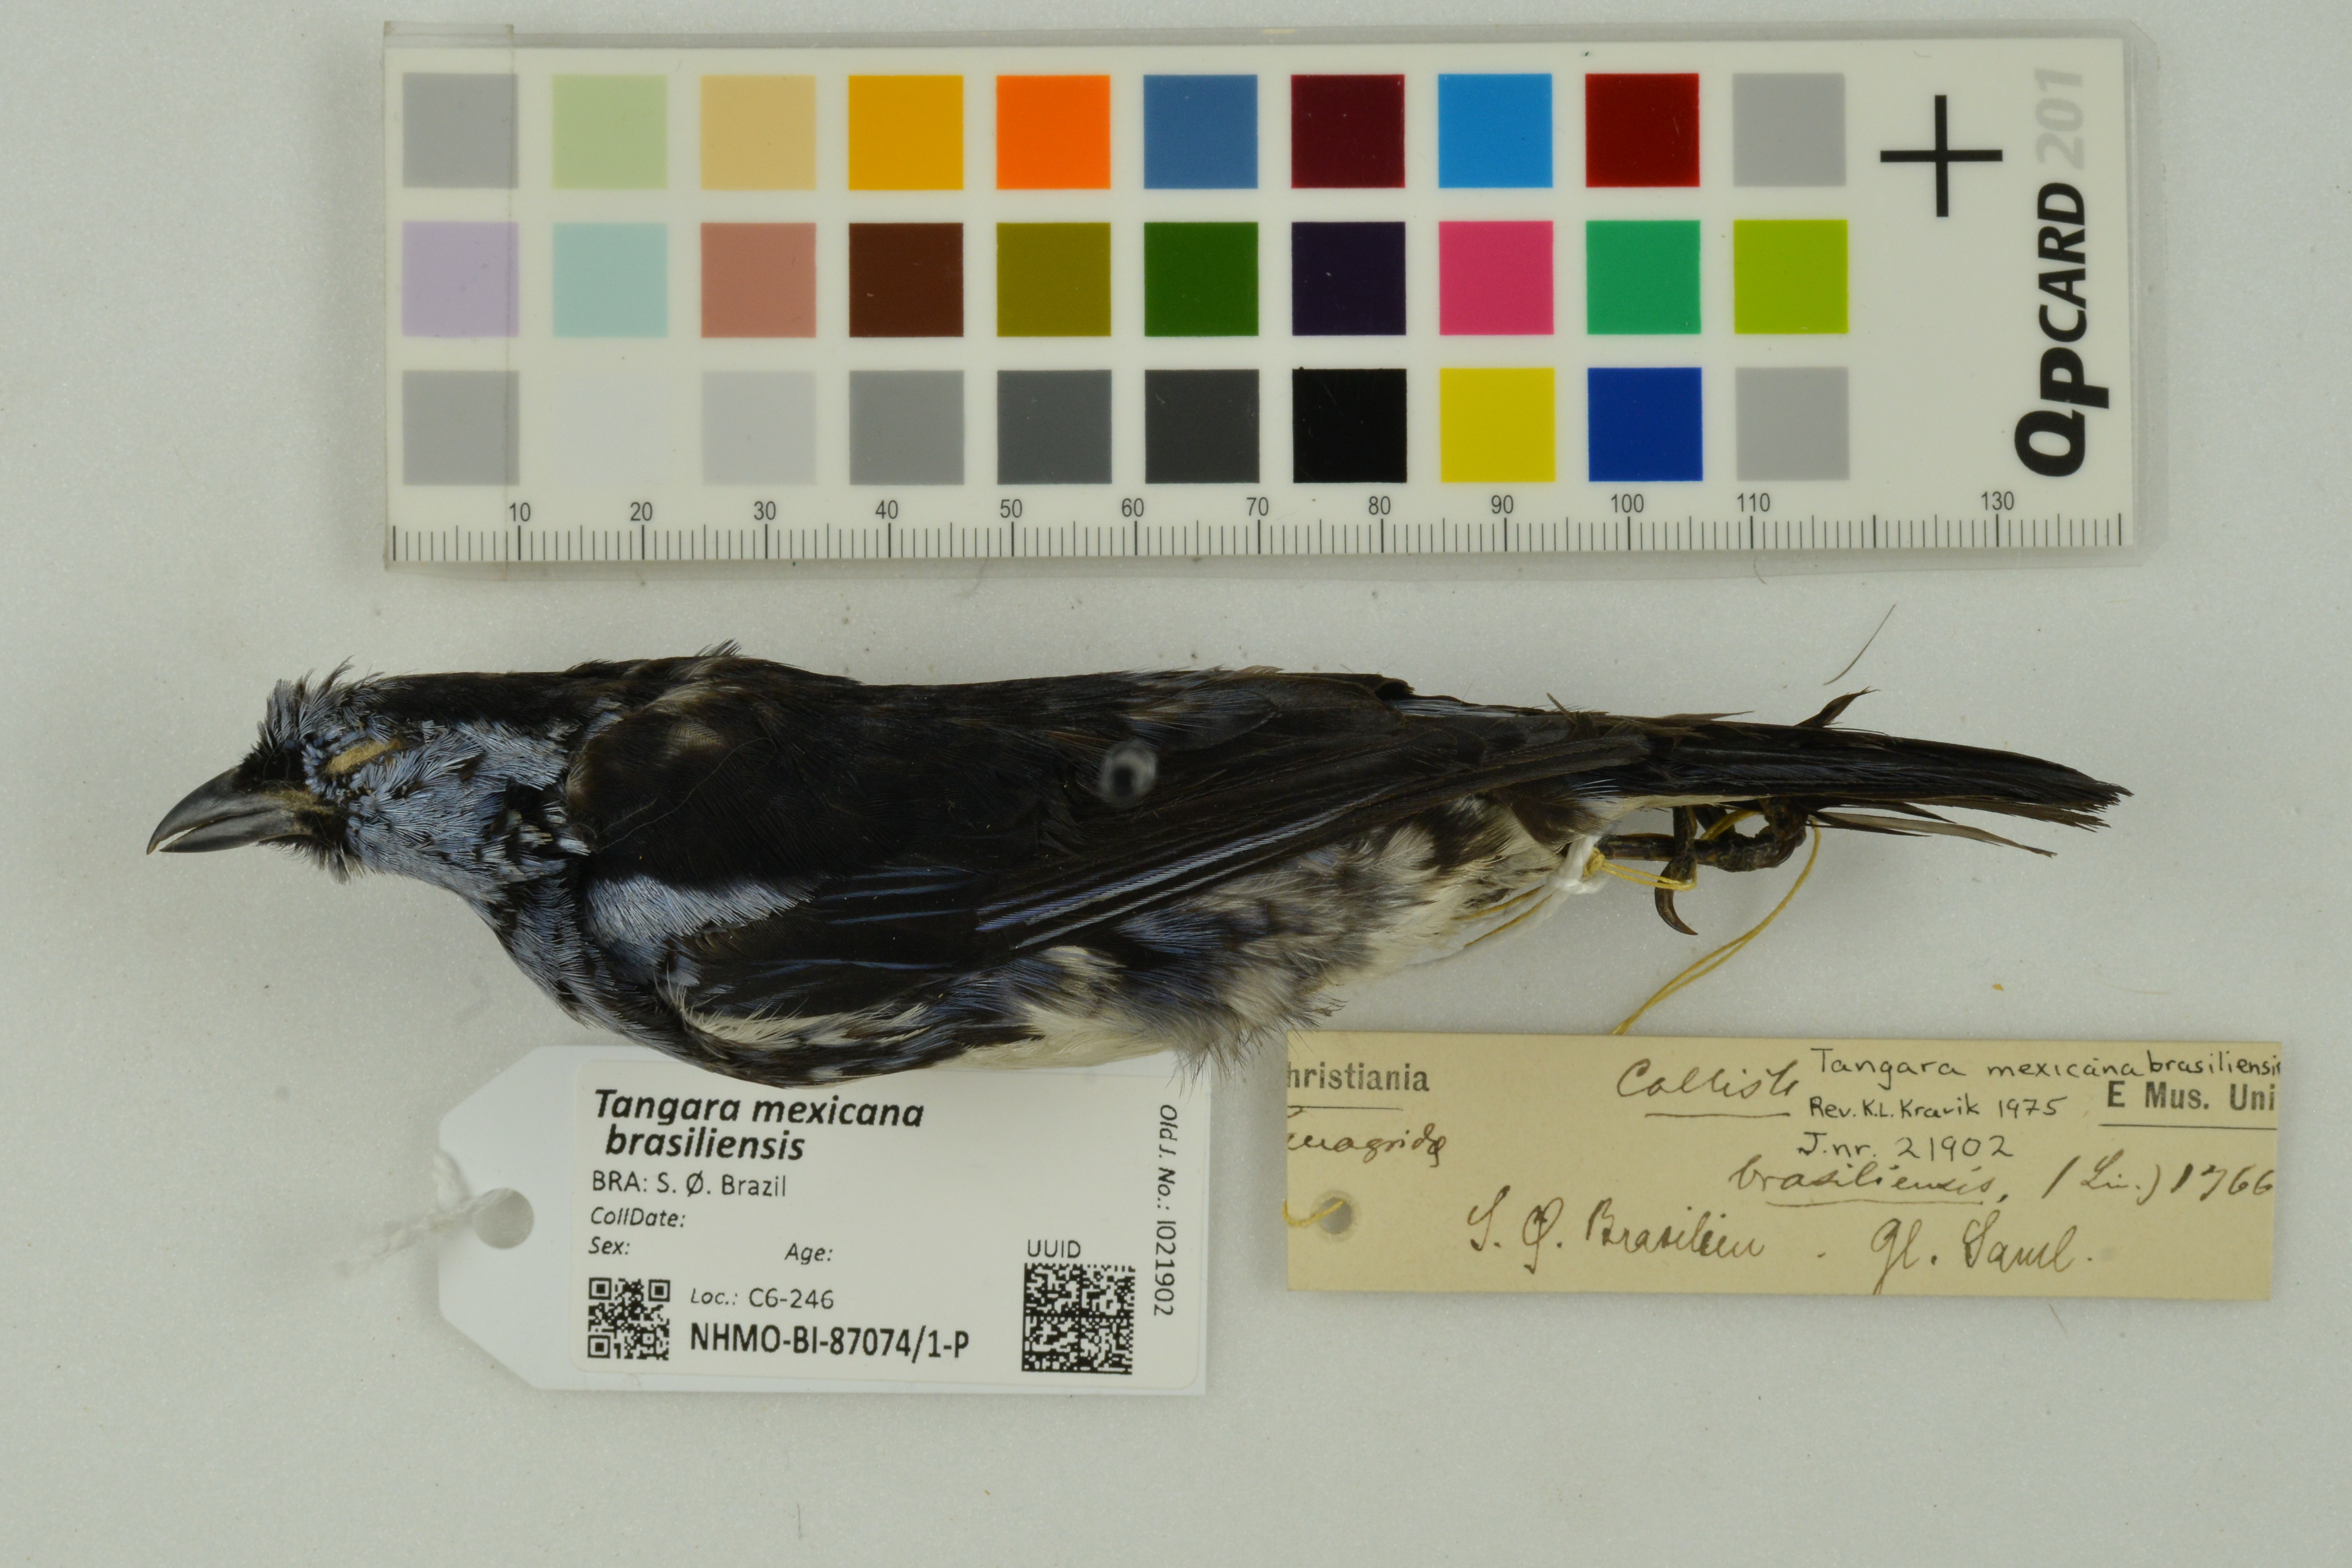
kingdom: Animalia
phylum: Chordata
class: Aves
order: Passeriformes
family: Thraupidae
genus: Tangara
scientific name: Tangara mexicana
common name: Turquoise tanager
